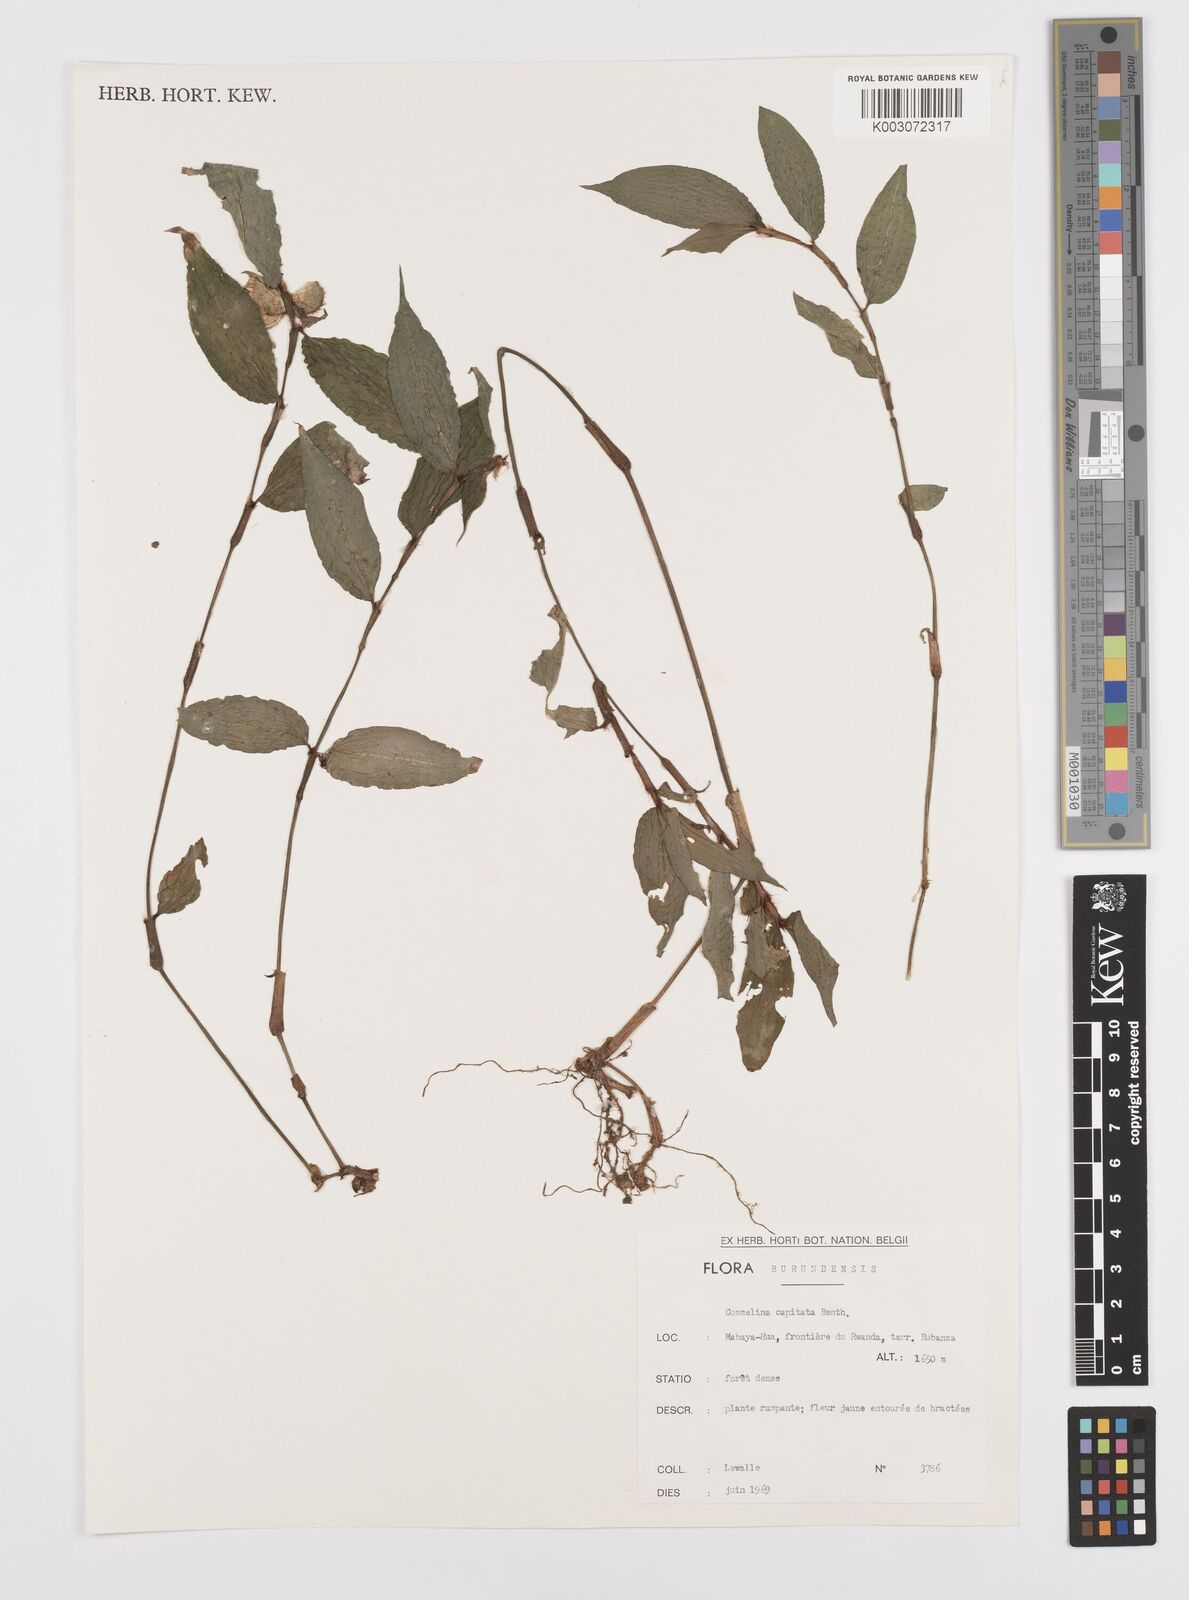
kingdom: Plantae
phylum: Tracheophyta
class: Liliopsida
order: Commelinales
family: Commelinaceae
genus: Commelina
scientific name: Commelina capitata
